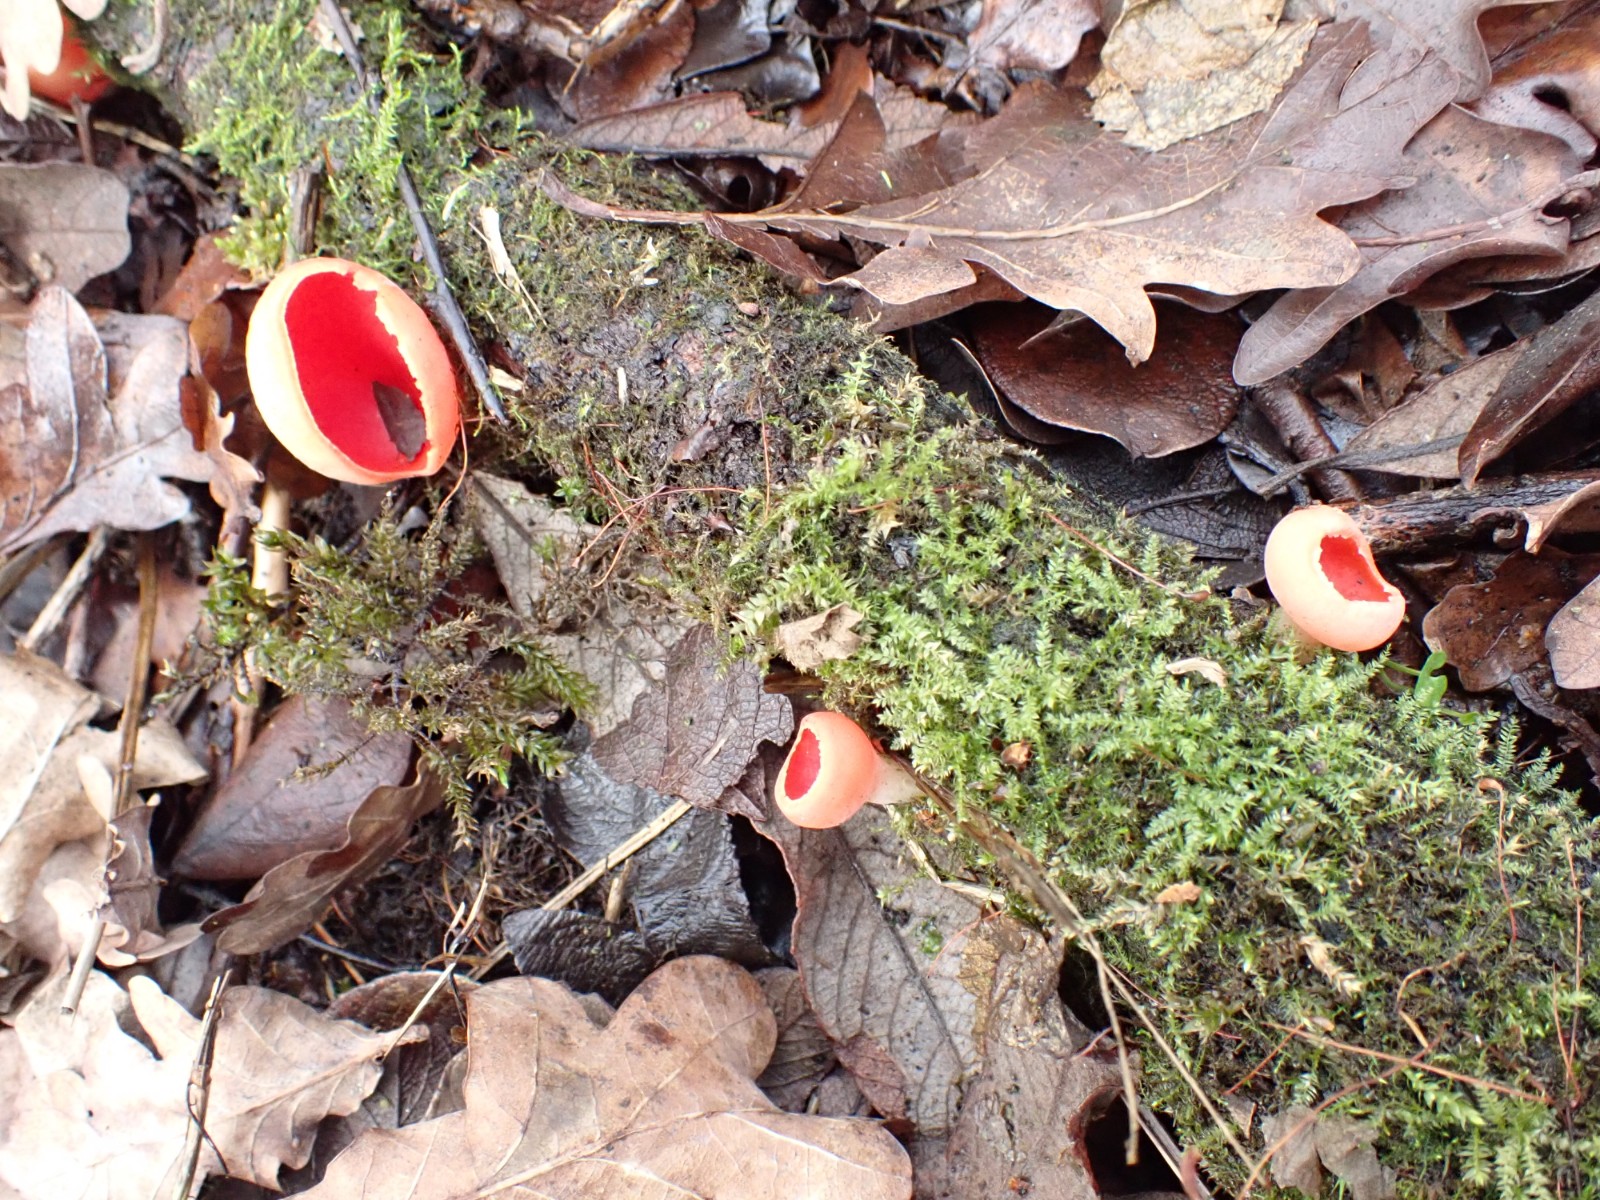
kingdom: Fungi
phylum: Ascomycota
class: Pezizomycetes
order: Pezizales
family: Sarcoscyphaceae
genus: Sarcoscypha
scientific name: Sarcoscypha austriaca
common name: krølhåret pragtbæger
